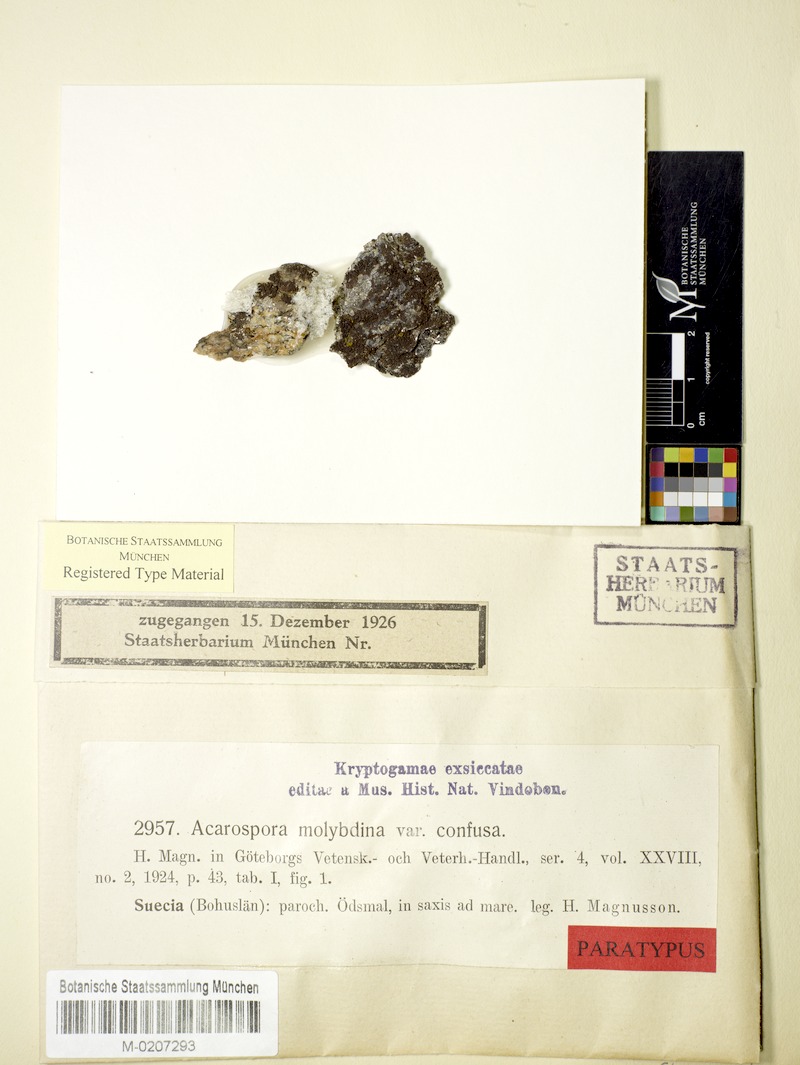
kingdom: Fungi
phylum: Ascomycota
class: Lecanoromycetes
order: Acarosporales
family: Acarosporaceae
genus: Acarospora
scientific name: Acarospora molybdina
